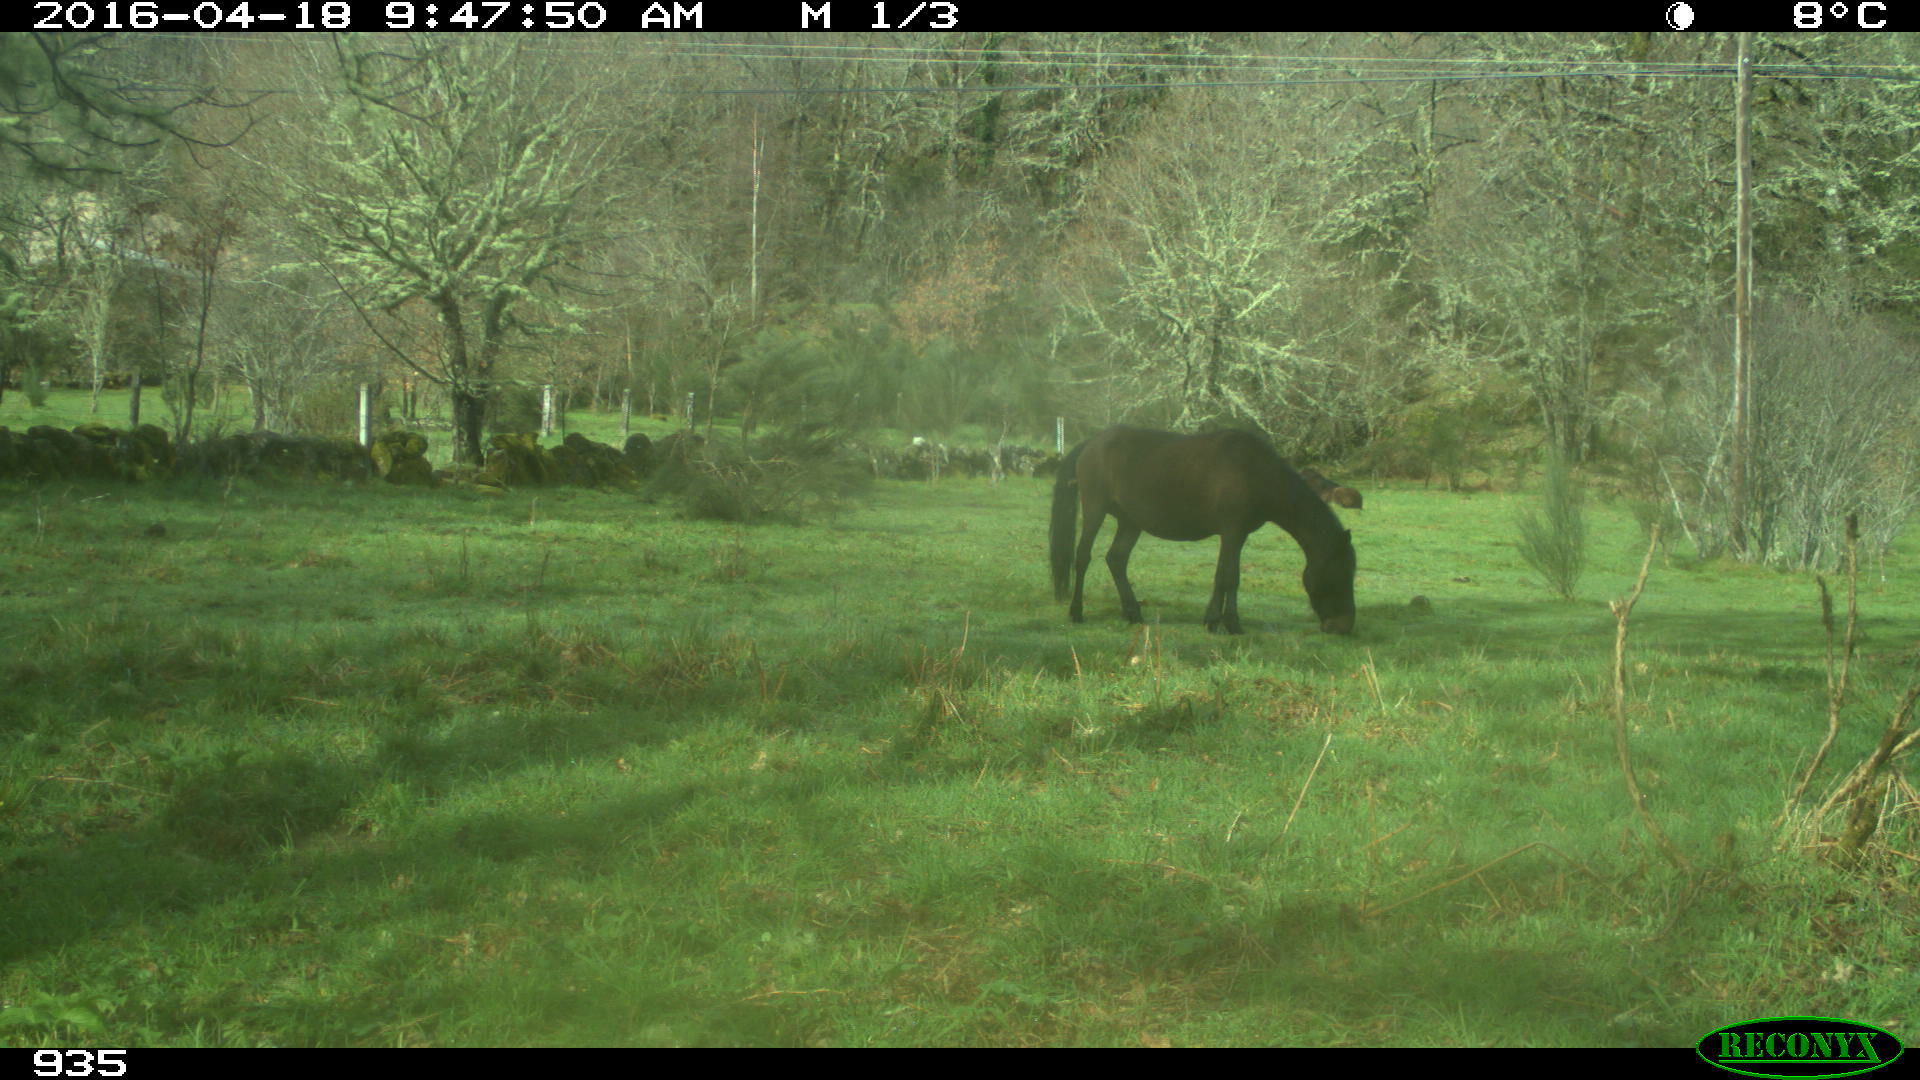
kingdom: Animalia
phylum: Chordata
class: Mammalia
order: Perissodactyla
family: Equidae
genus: Equus
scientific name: Equus caballus
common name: Horse
